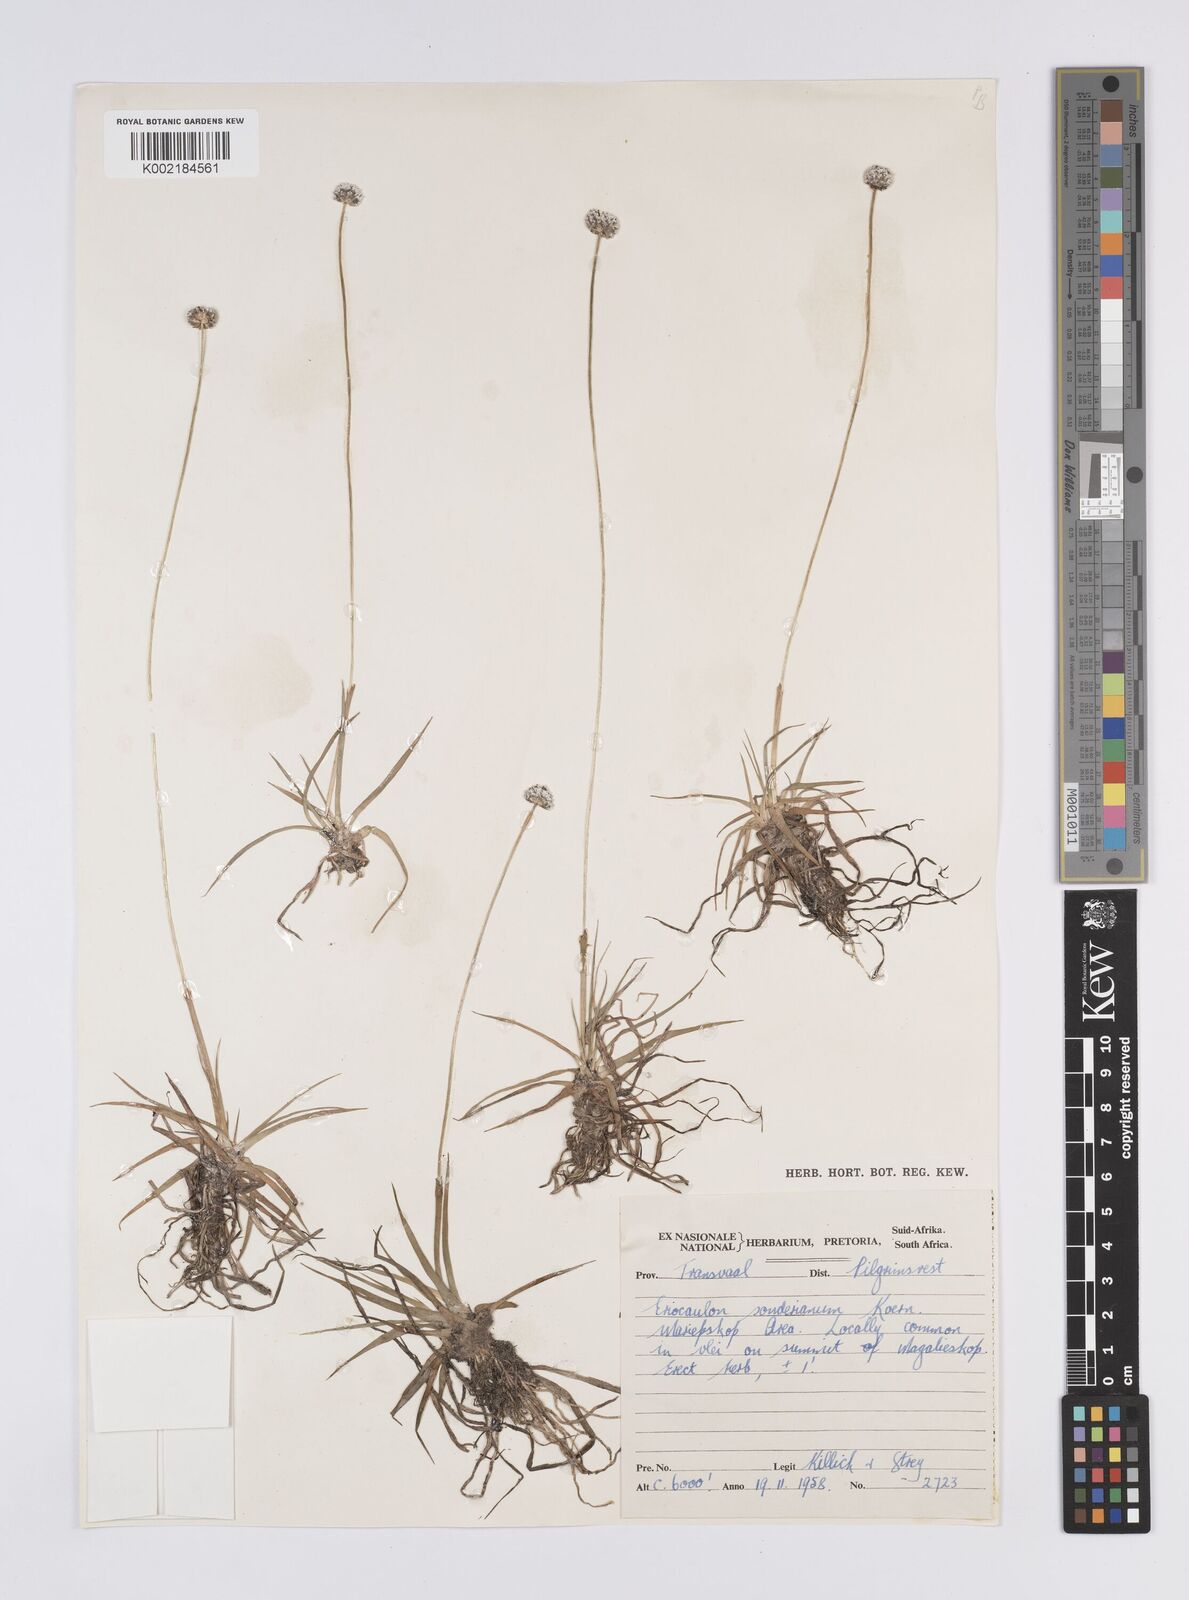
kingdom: Plantae
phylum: Tracheophyta
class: Liliopsida
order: Poales
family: Eriocaulaceae
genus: Eriocaulon
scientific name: Eriocaulon sonderianum
